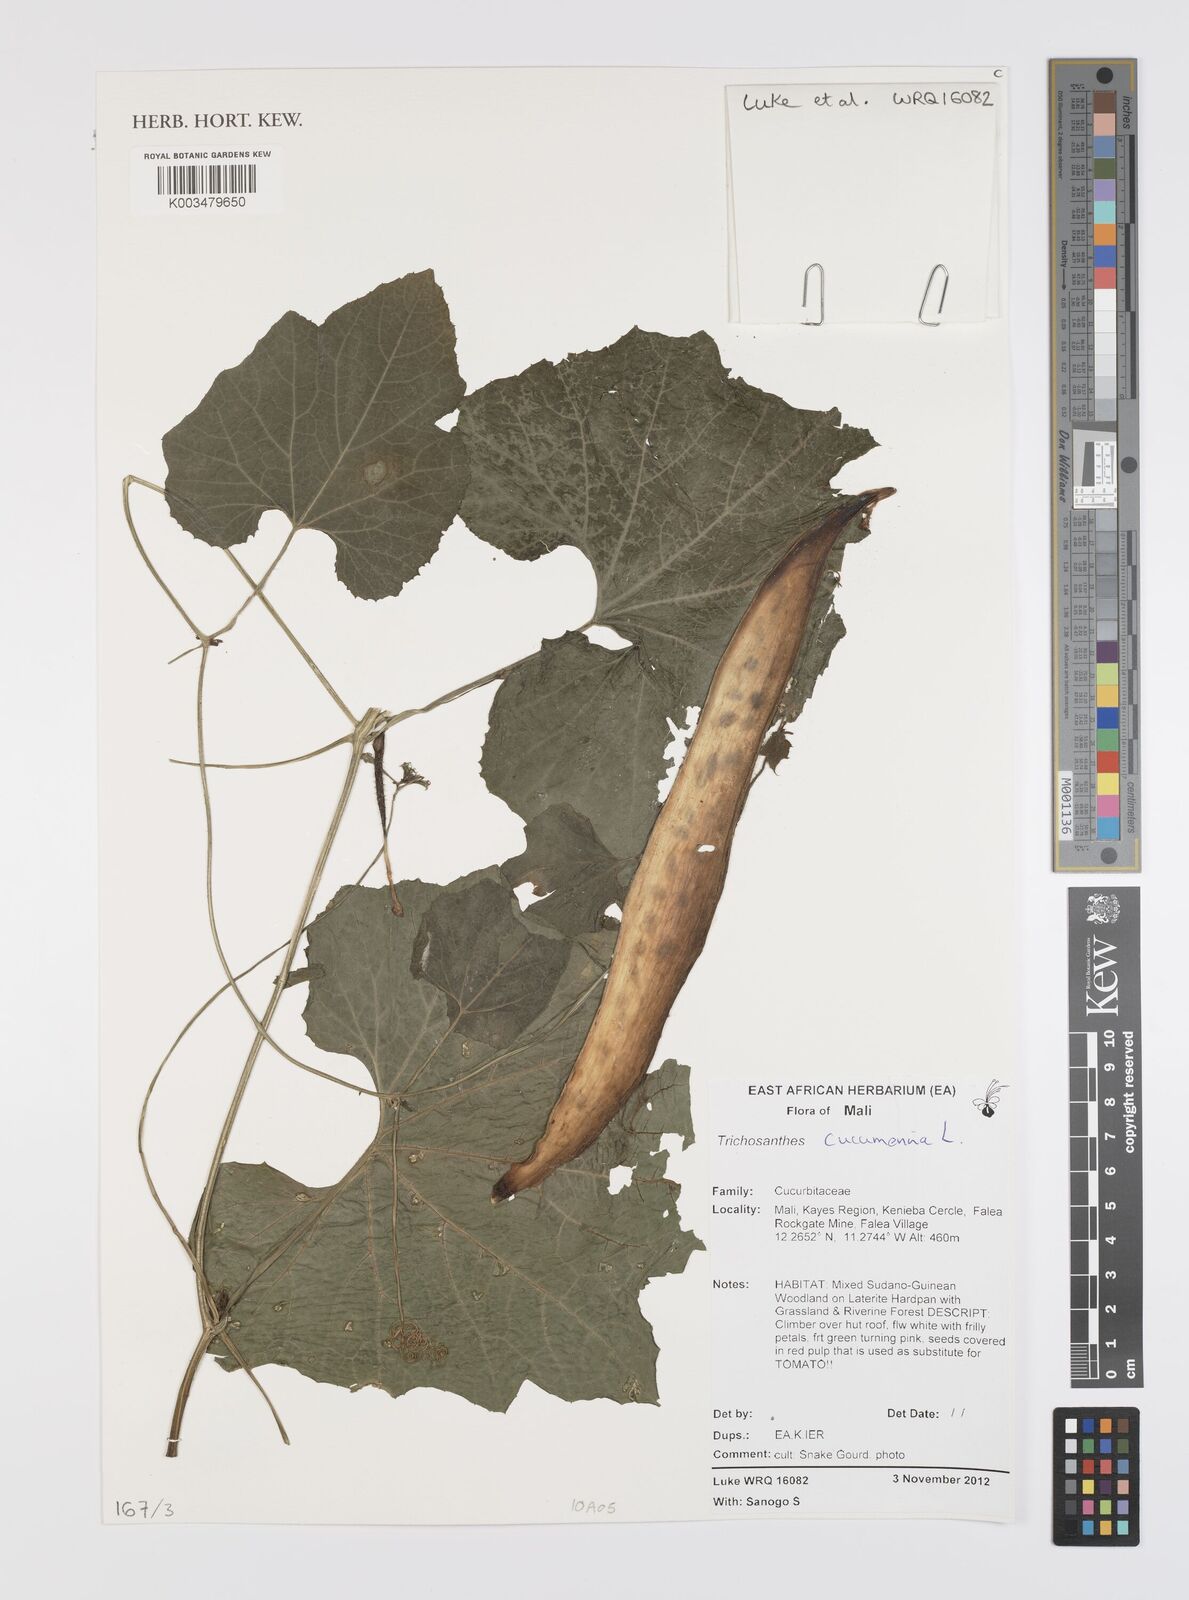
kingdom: Plantae
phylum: Tracheophyta
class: Magnoliopsida
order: Cucurbitales
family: Cucurbitaceae
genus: Trichosanthes
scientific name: Trichosanthes cucumerina
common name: Snakegourd
